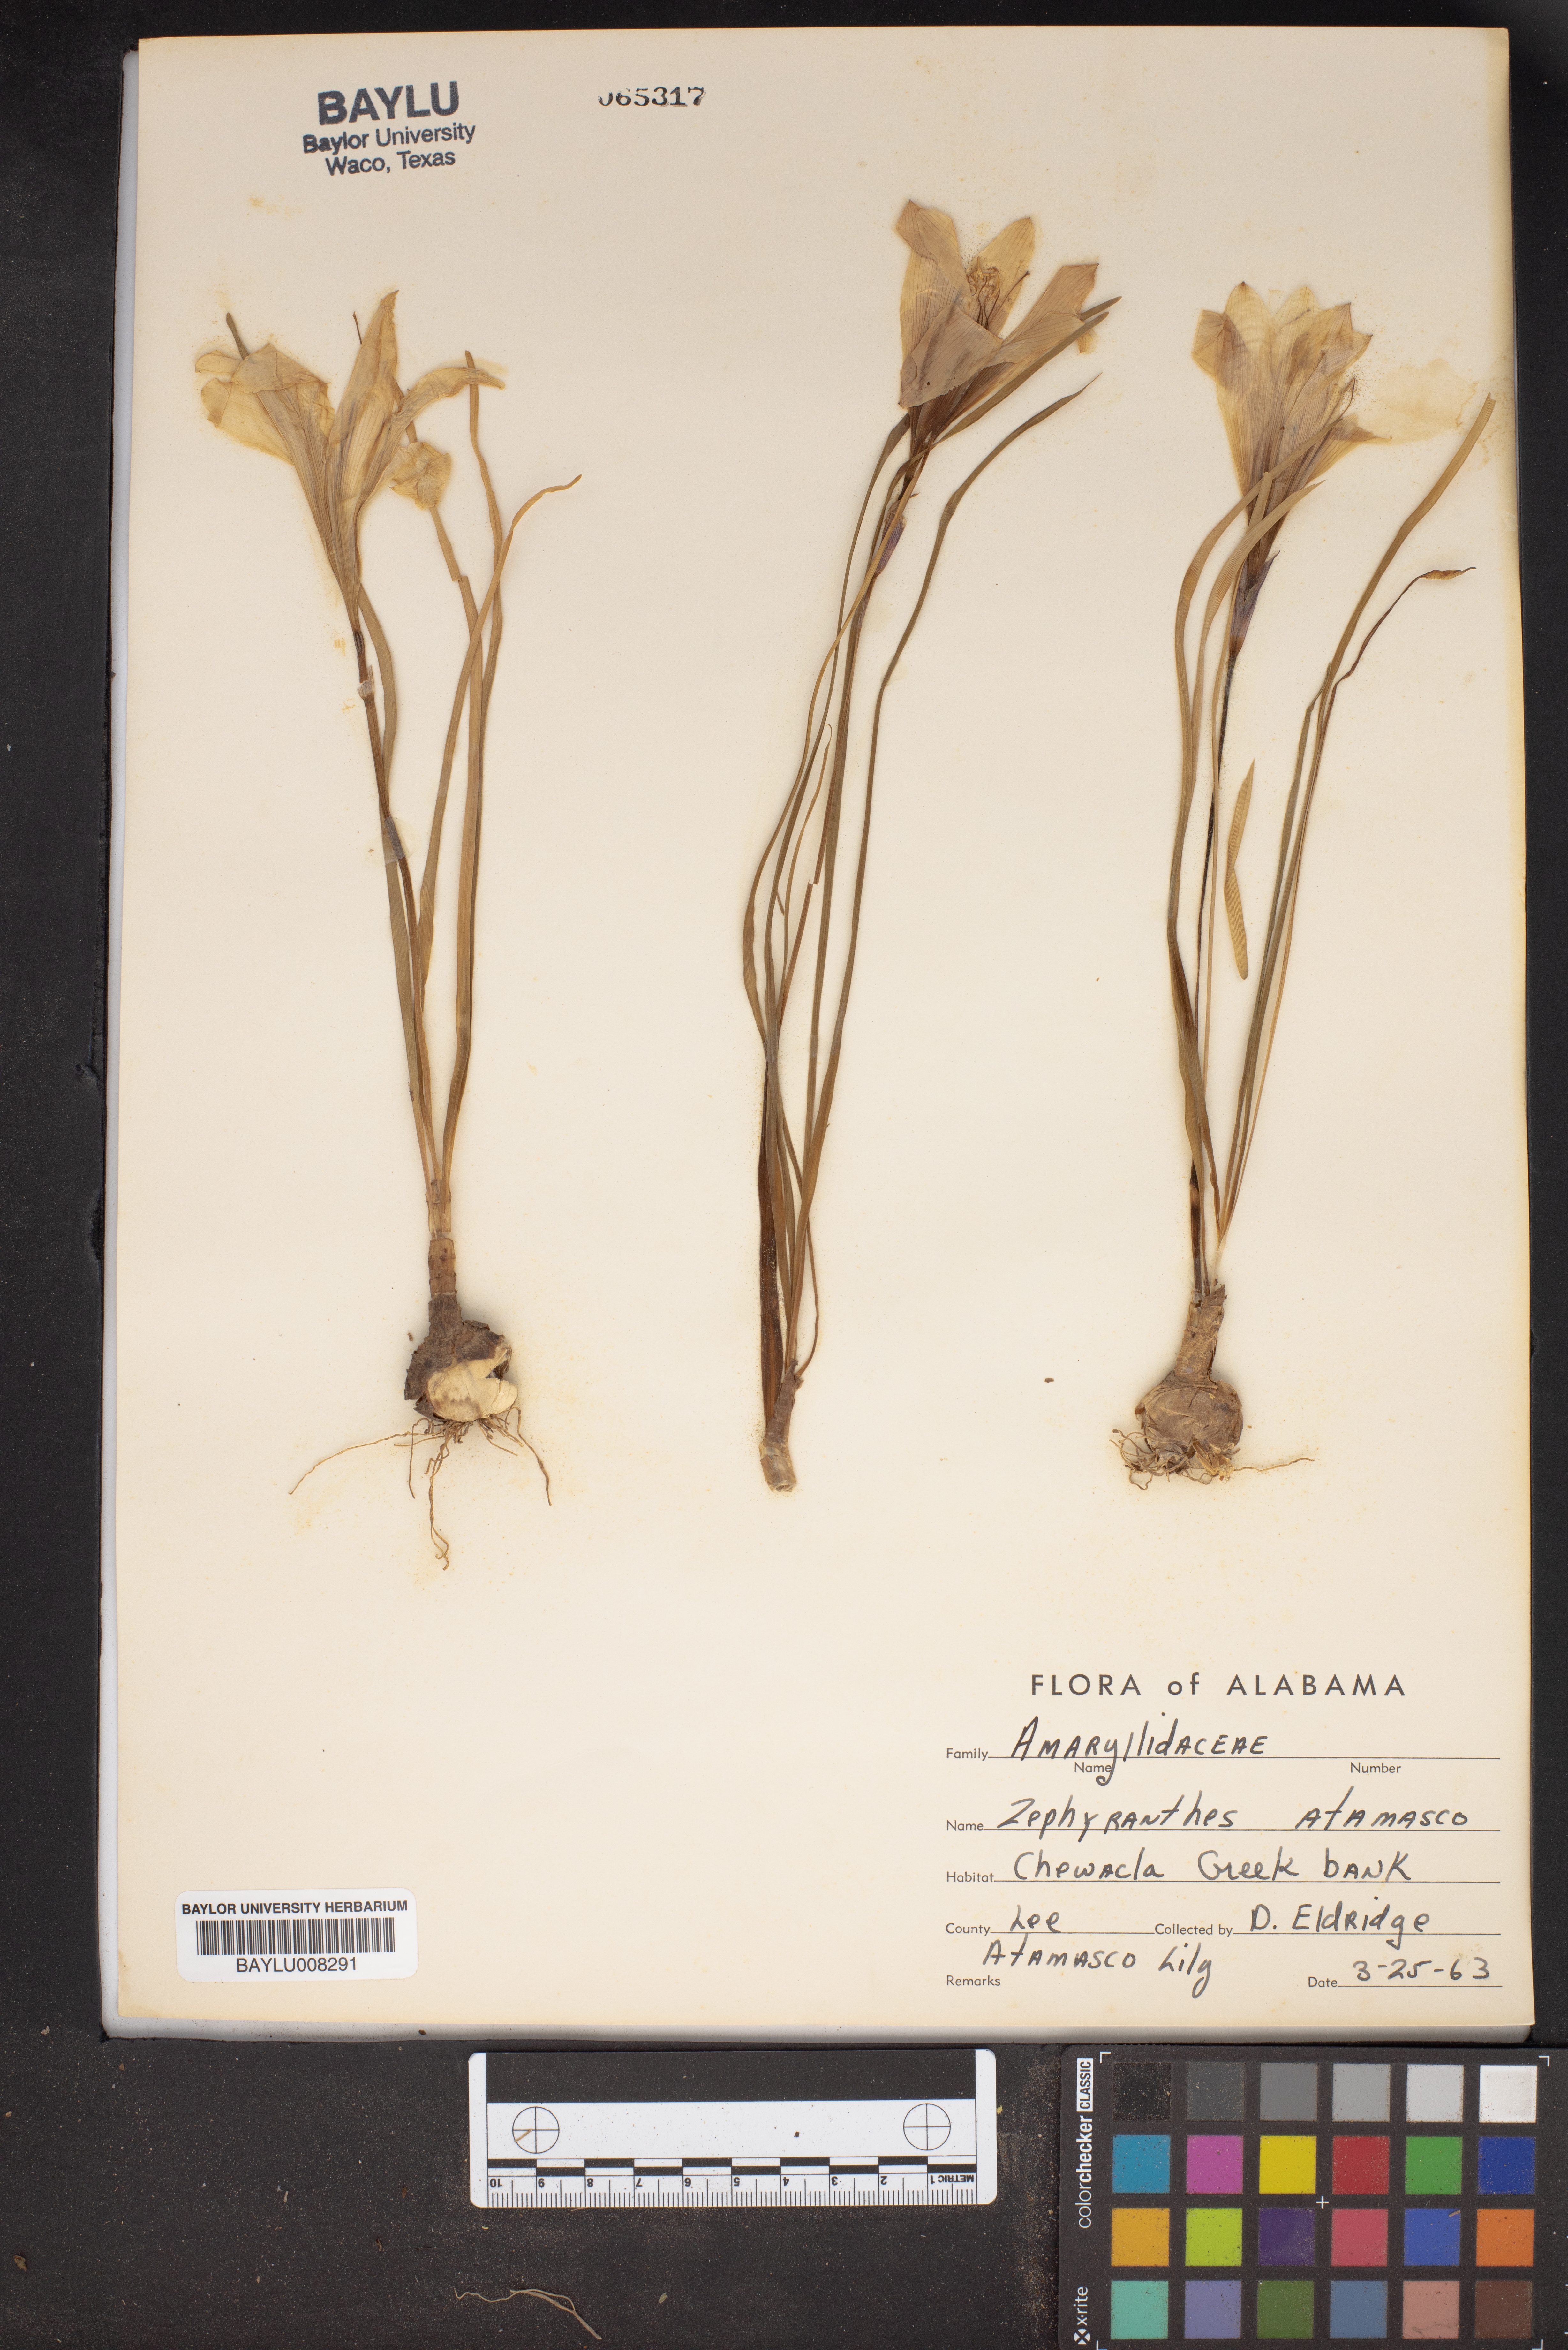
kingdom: Plantae
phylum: Tracheophyta
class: Liliopsida
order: Asparagales
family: Amaryllidaceae
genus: Zephyranthes
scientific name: Zephyranthes atamasco
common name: Atamasco lily
